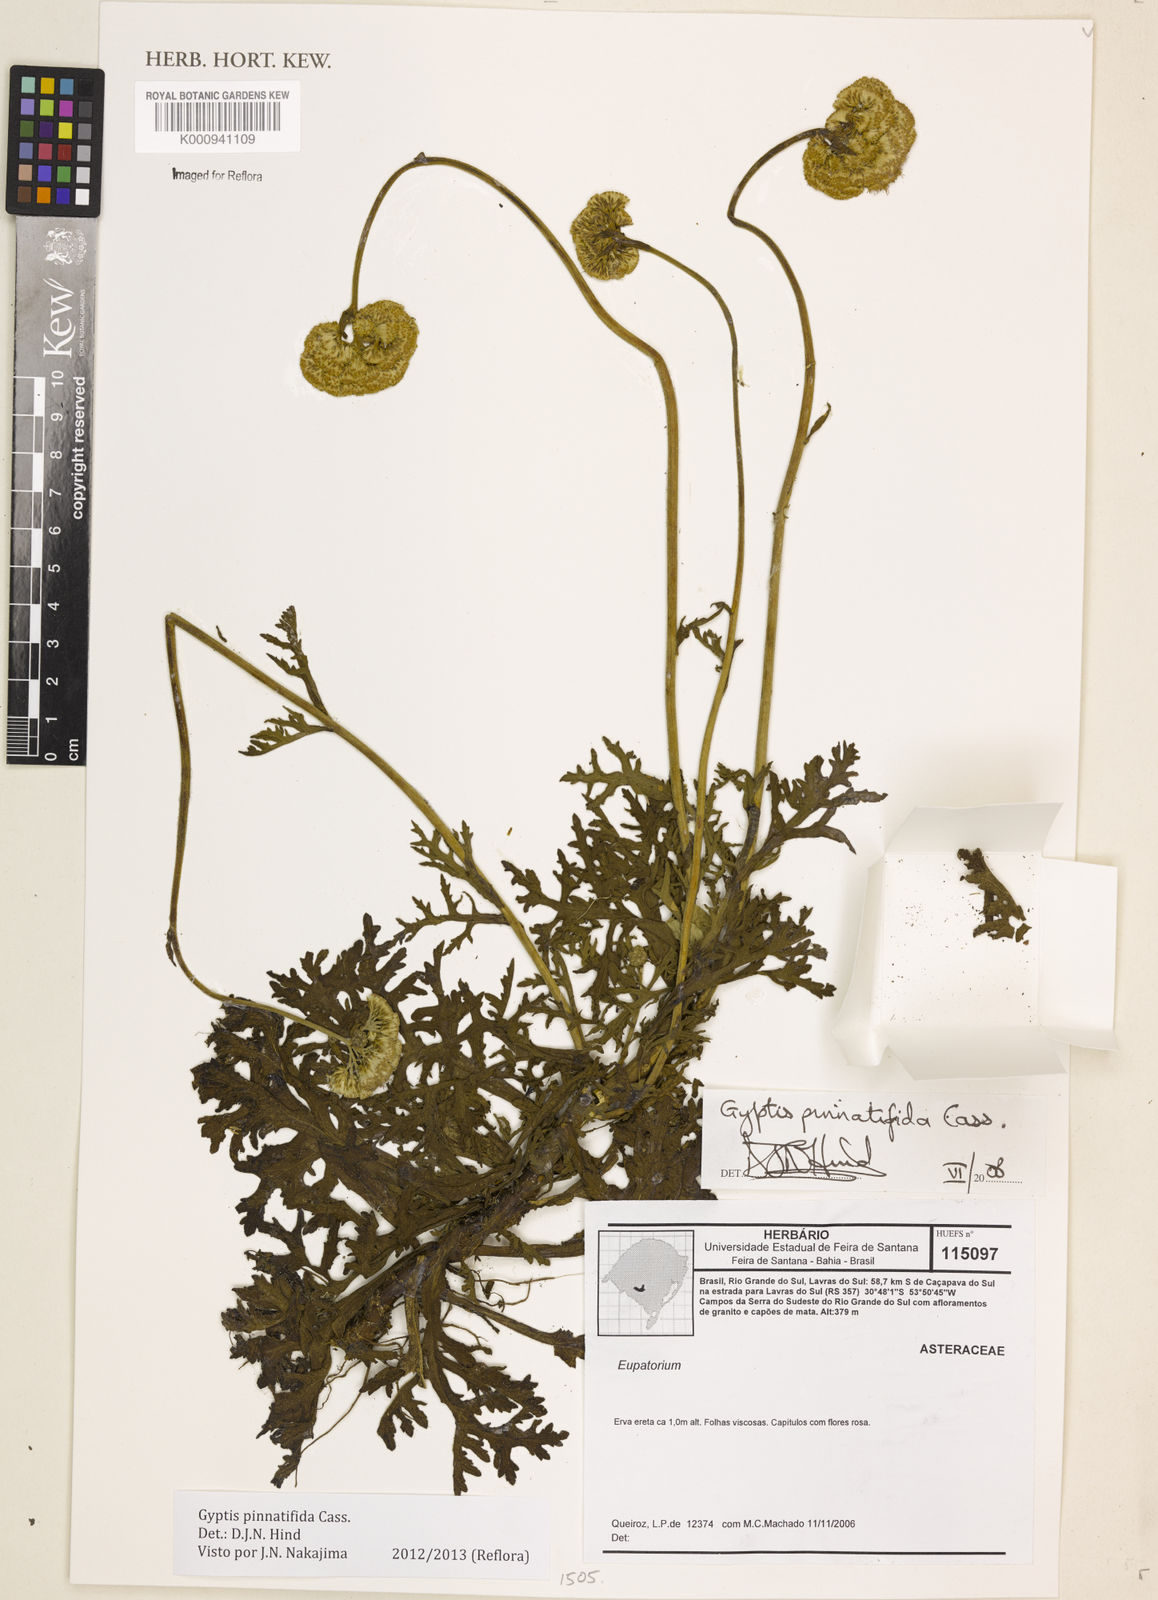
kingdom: Plantae
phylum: Tracheophyta
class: Magnoliopsida
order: Asterales
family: Asteraceae
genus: Gyptis
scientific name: Gyptis pinnatifida
